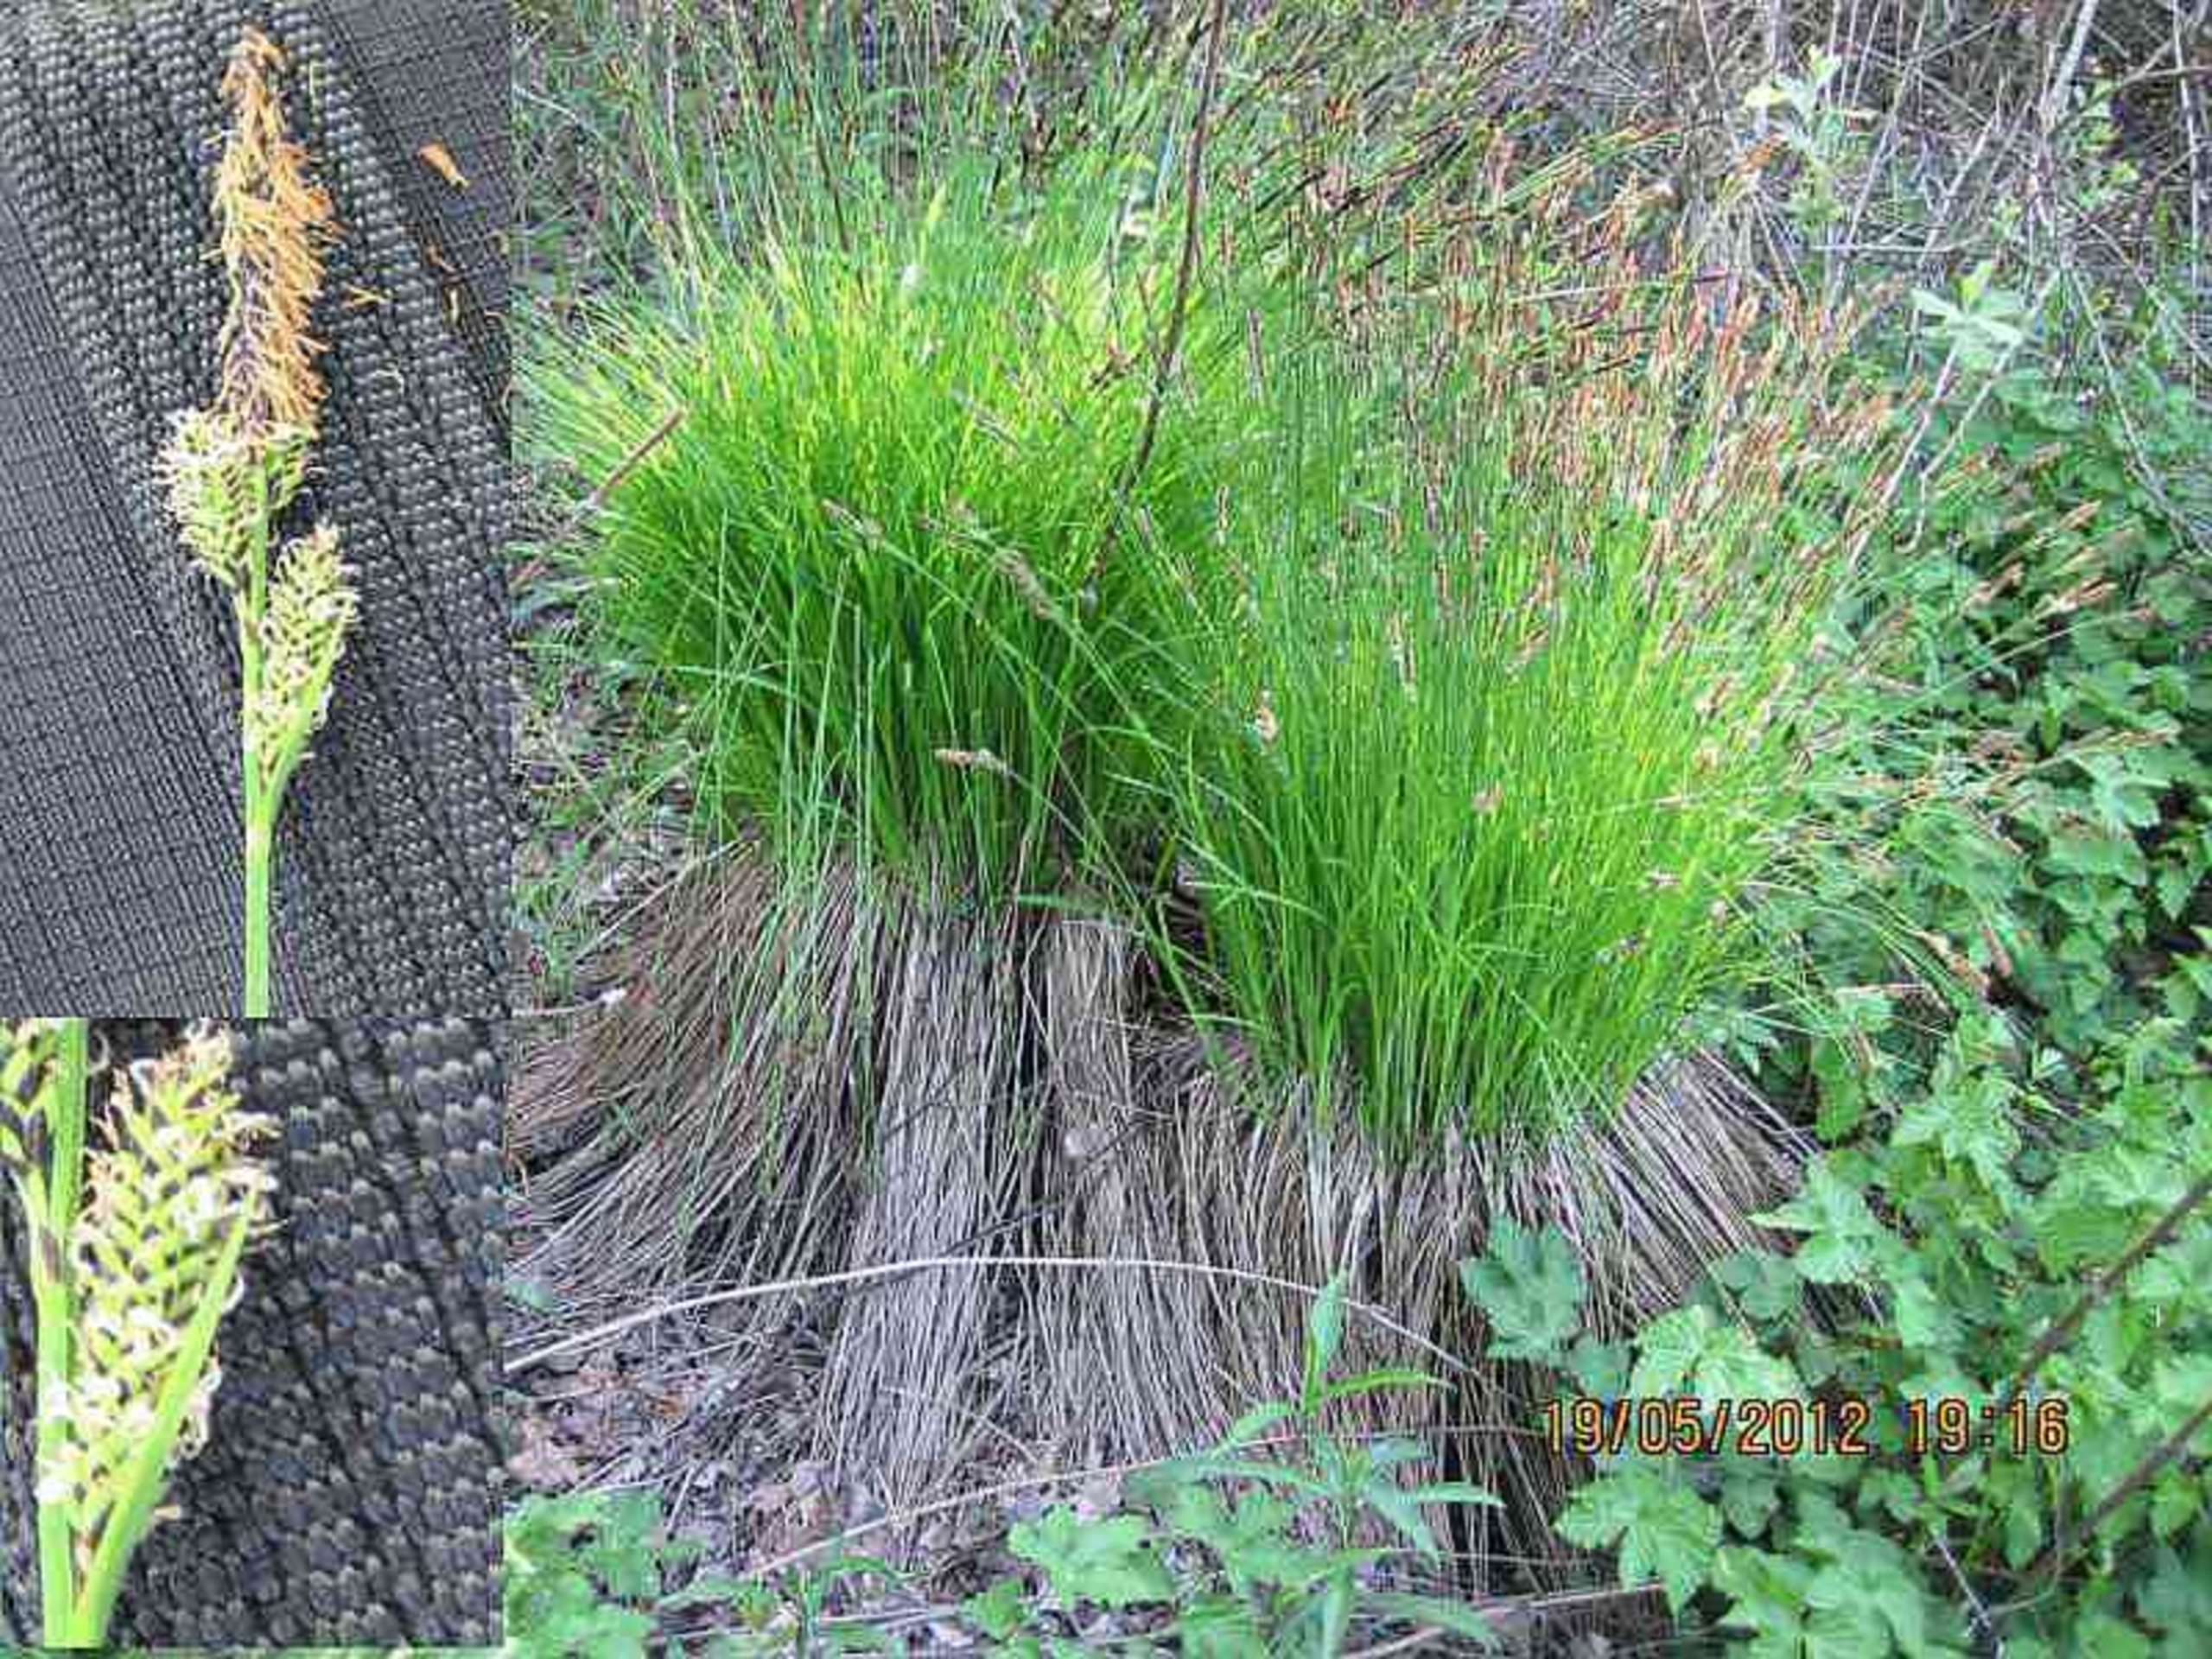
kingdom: Plantae
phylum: Tracheophyta
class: Liliopsida
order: Poales
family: Cyperaceae
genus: Carex
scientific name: Carex cespitosa
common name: Tue-star
